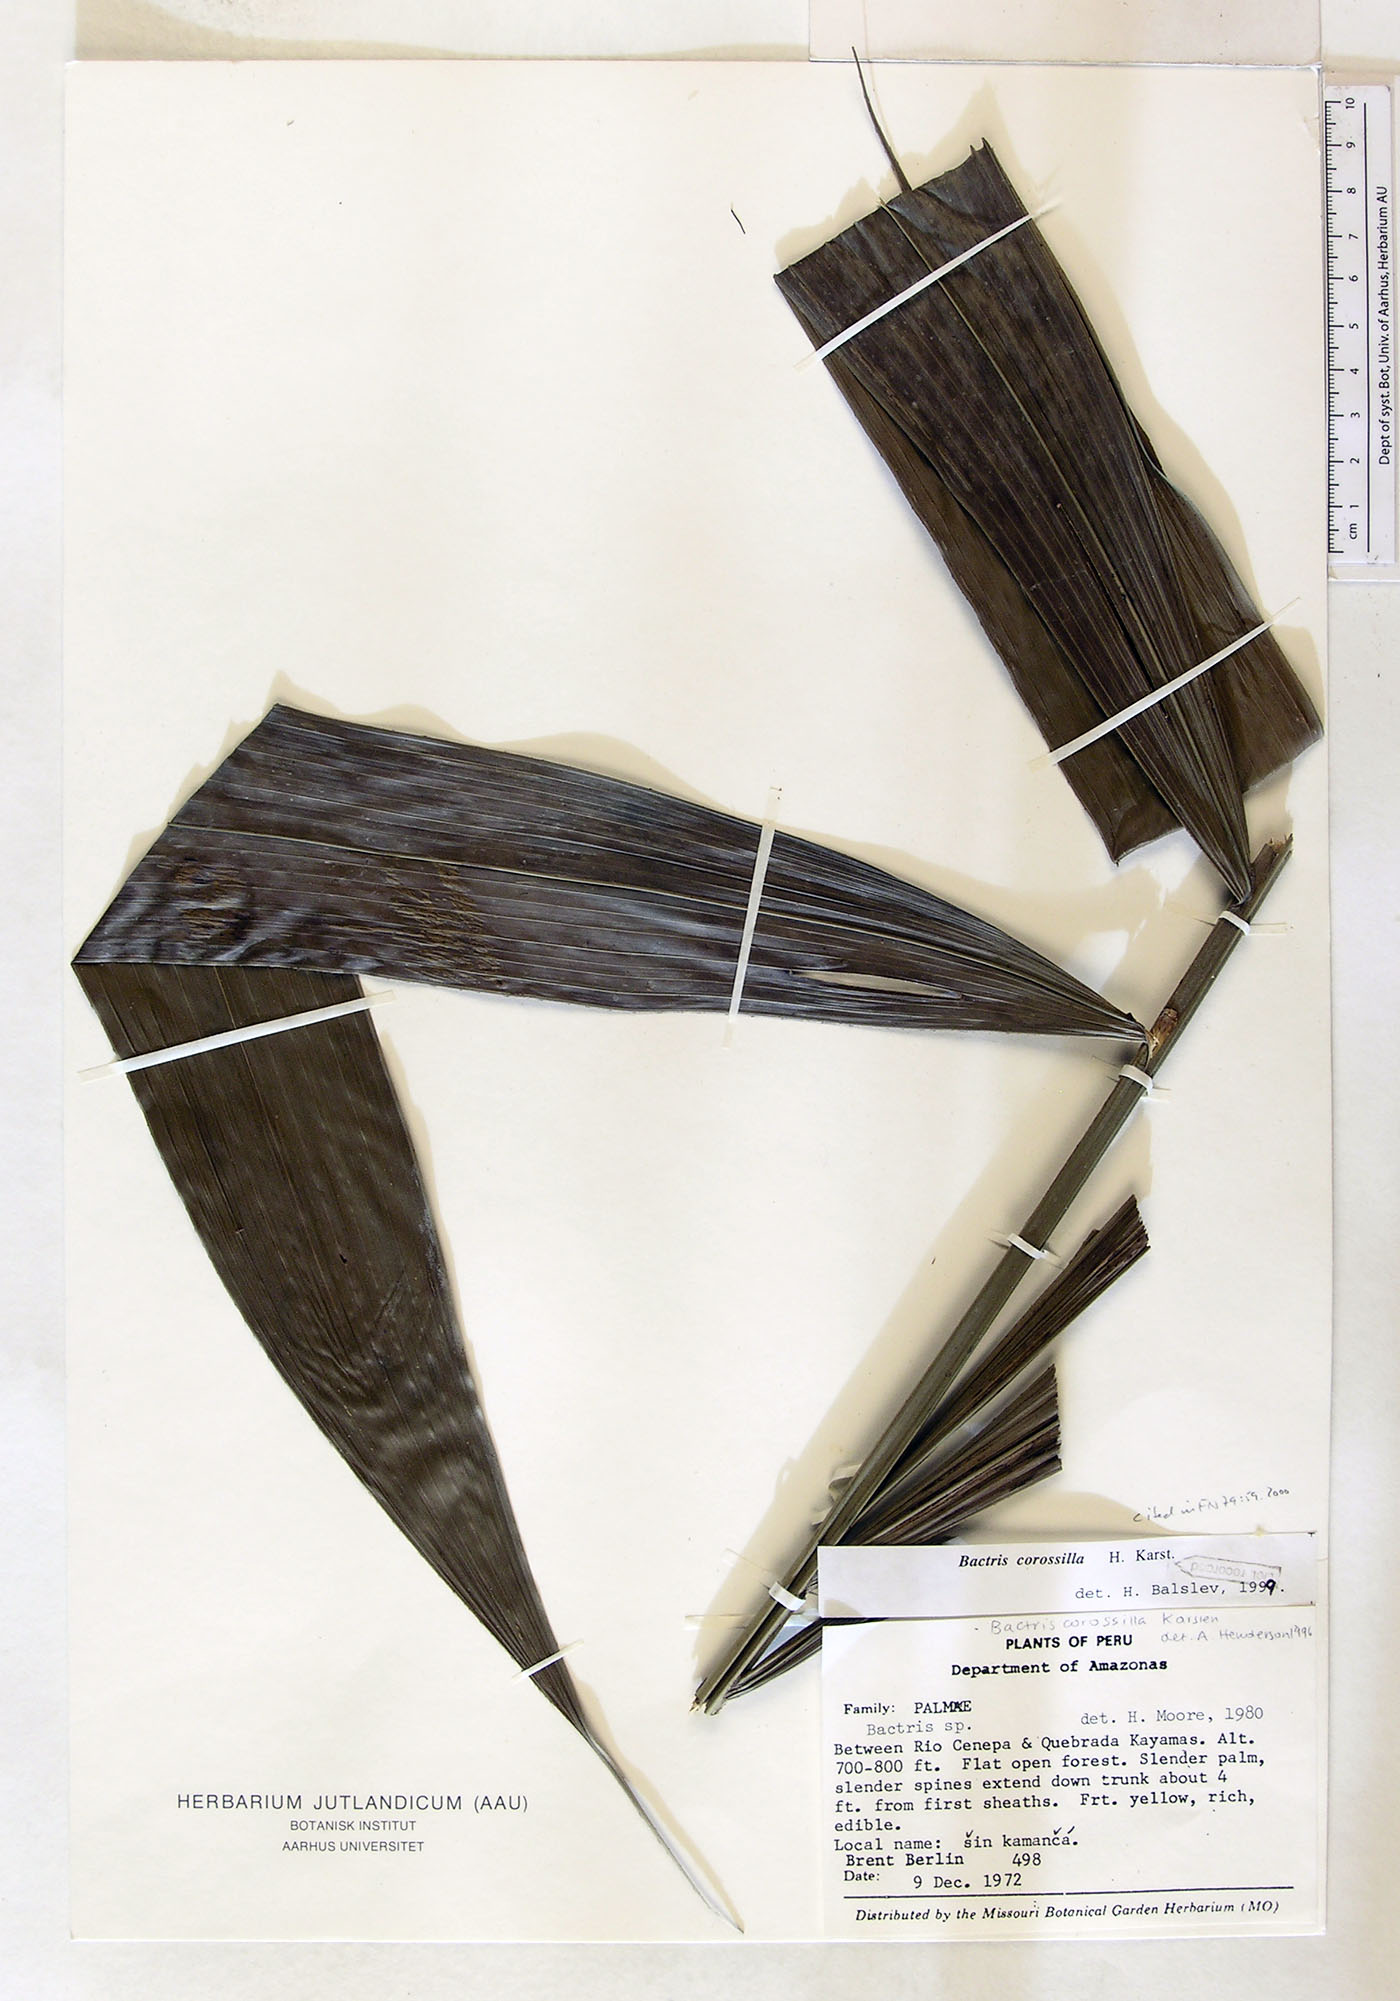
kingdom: Plantae
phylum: Tracheophyta
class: Liliopsida
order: Arecales
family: Arecaceae
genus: Bactris
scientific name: Bactris corossilla
